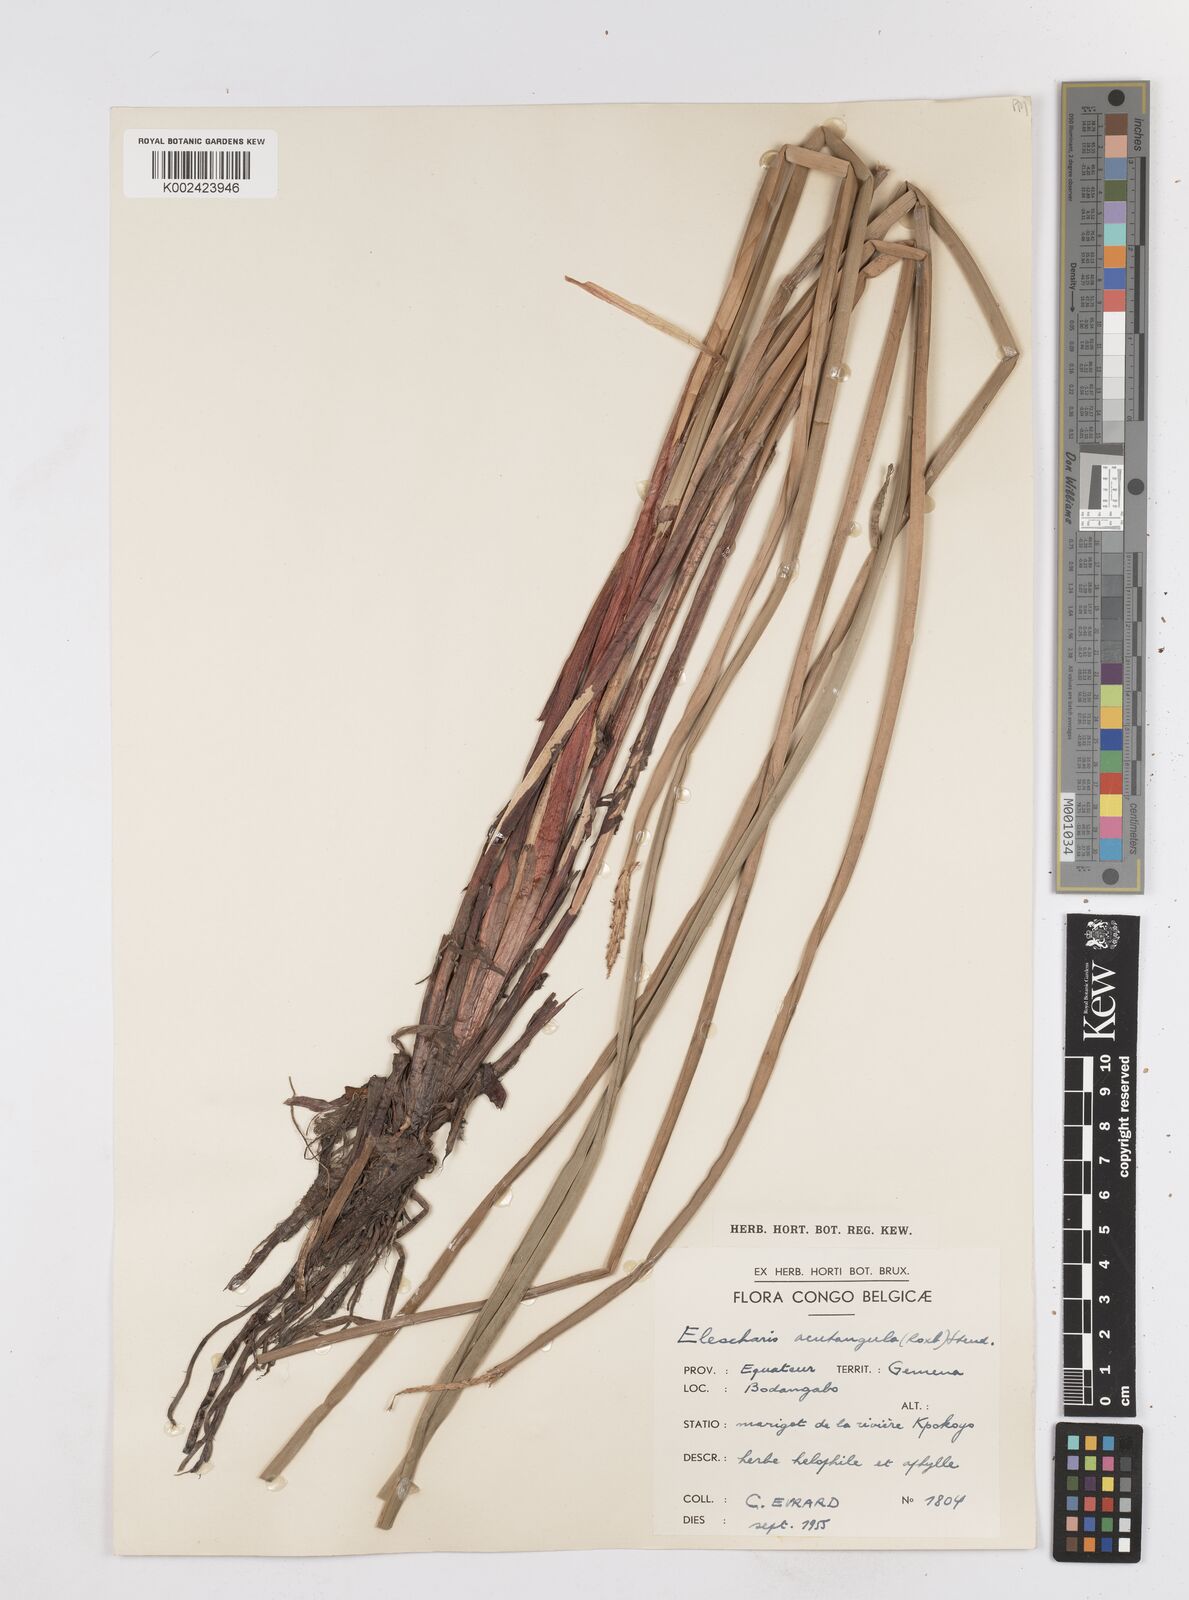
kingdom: Plantae
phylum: Tracheophyta
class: Liliopsida
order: Poales
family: Cyperaceae
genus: Eleocharis
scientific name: Eleocharis acutangula
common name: Acute spikerush
